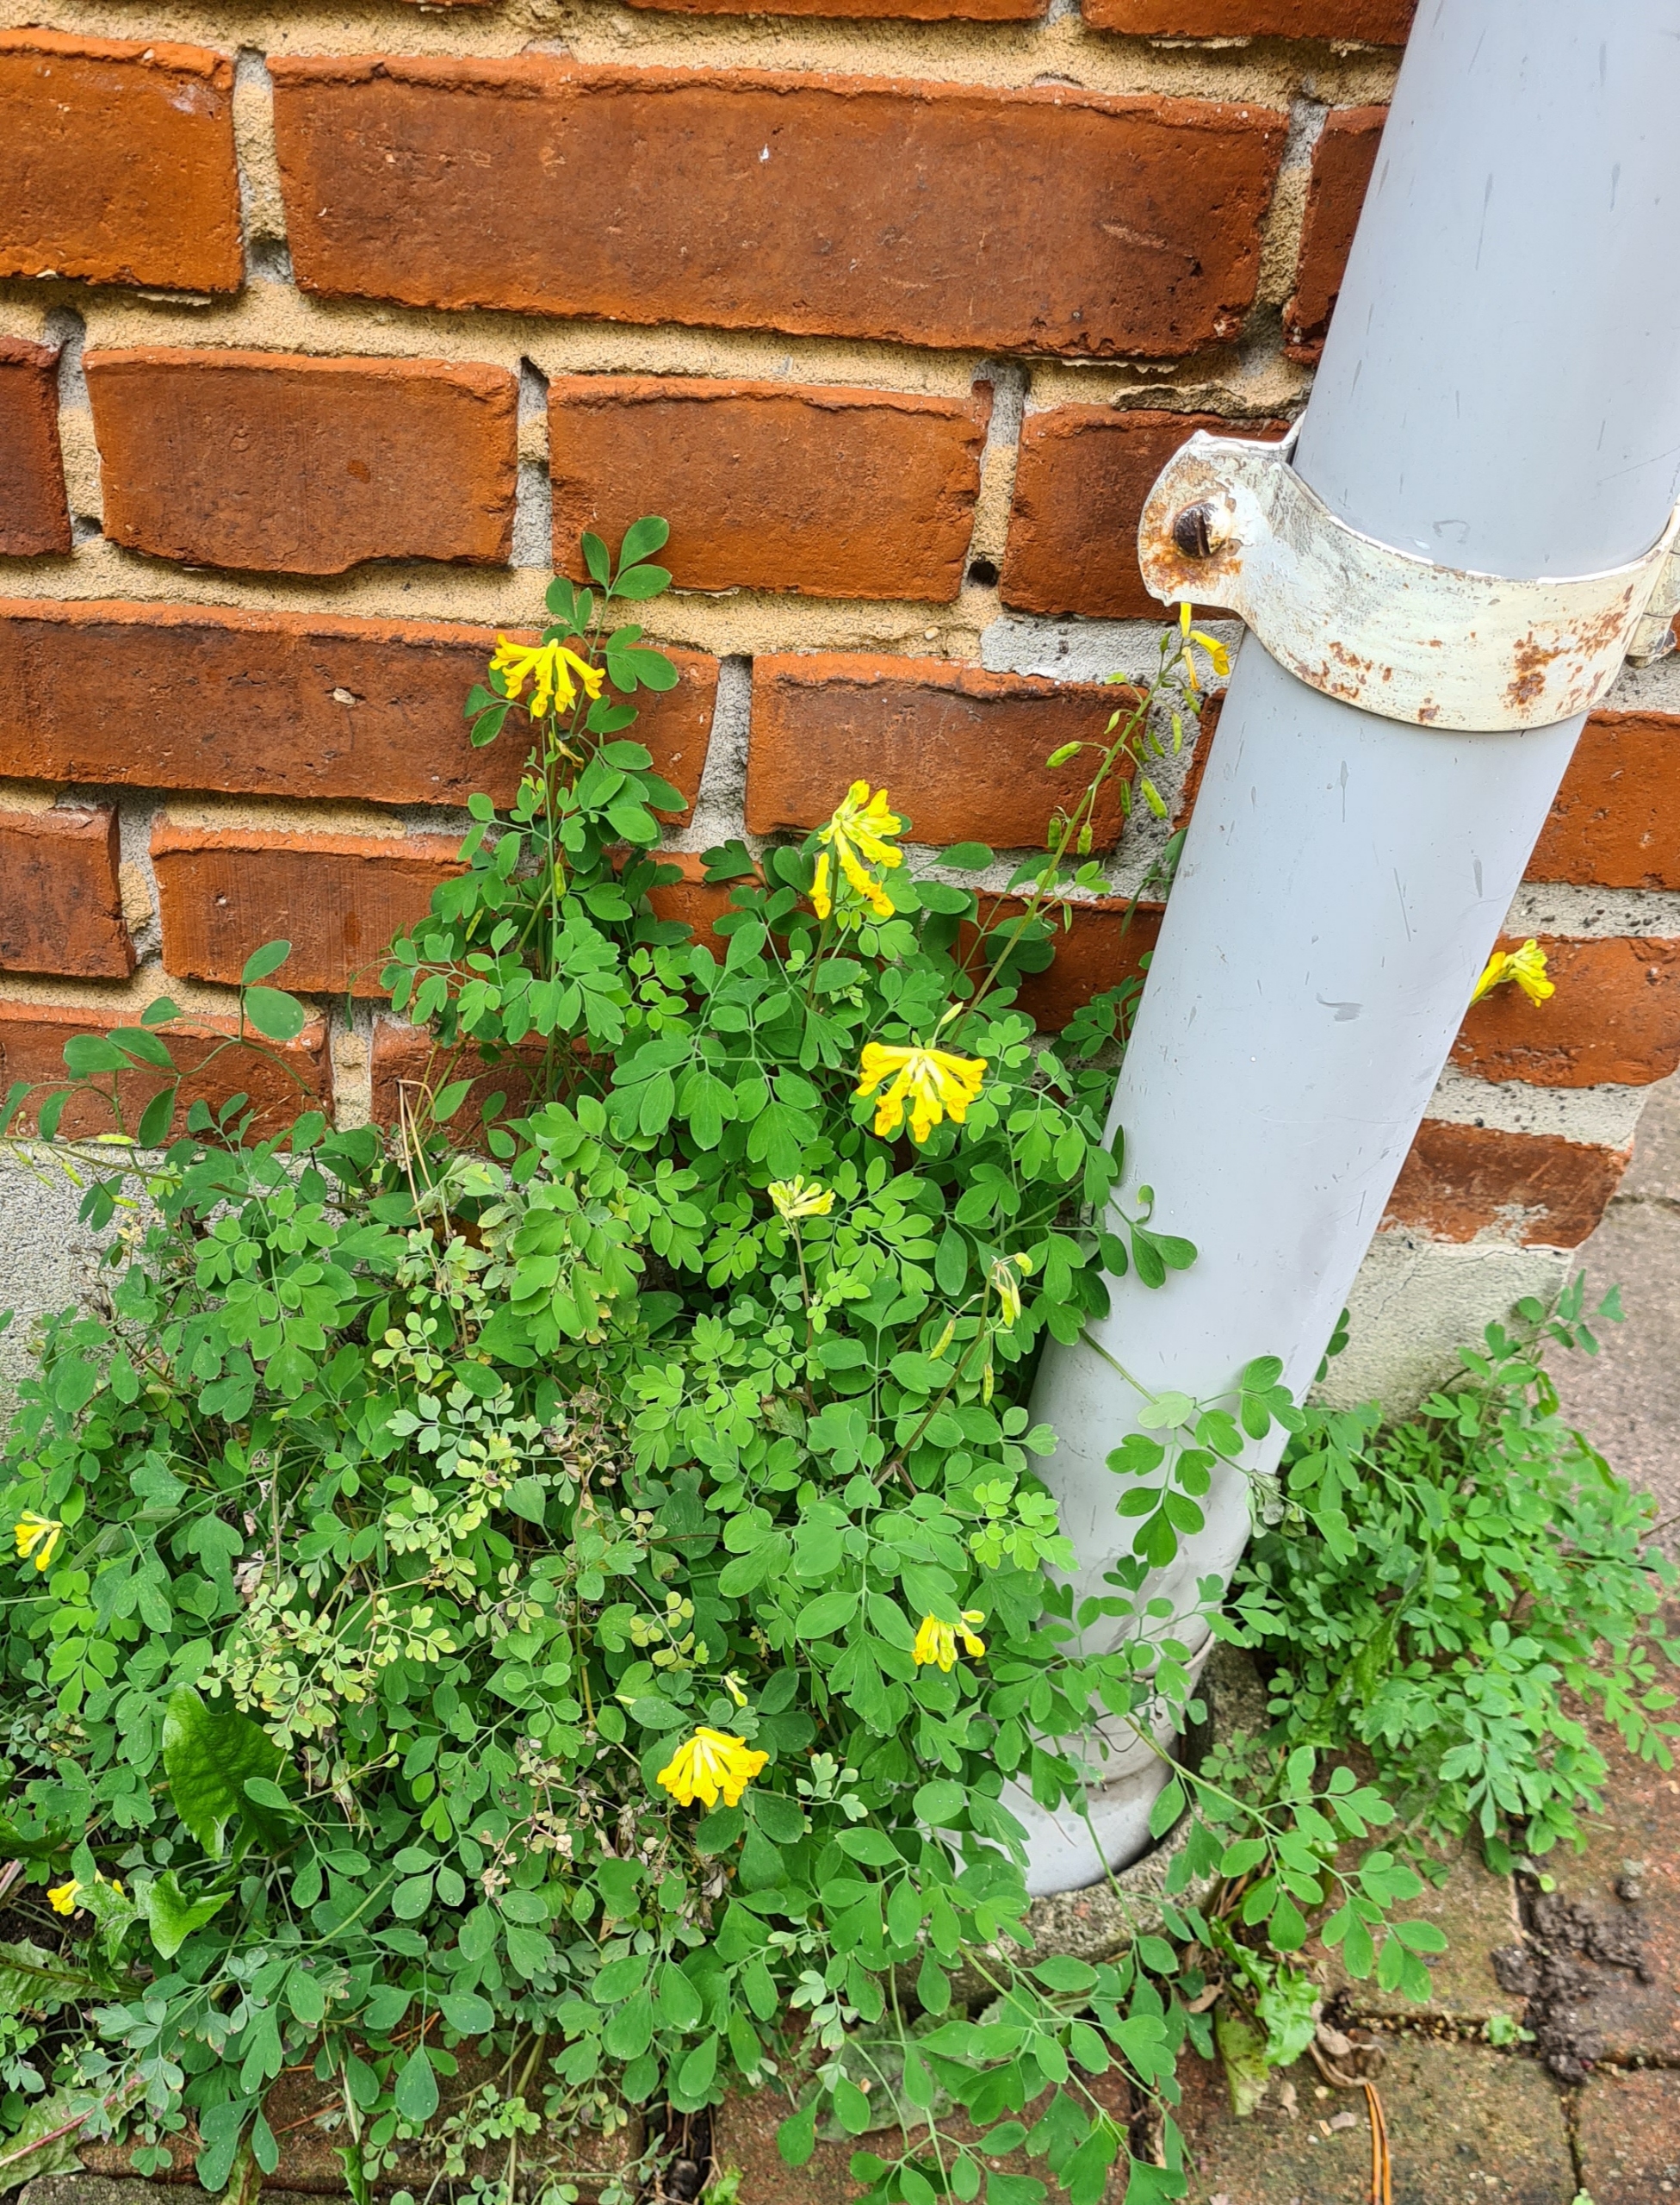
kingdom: Plantae
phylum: Tracheophyta
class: Magnoliopsida
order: Ranunculales
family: Papaveraceae
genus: Pseudofumaria
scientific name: Pseudofumaria lutea
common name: Gul lærkespore
